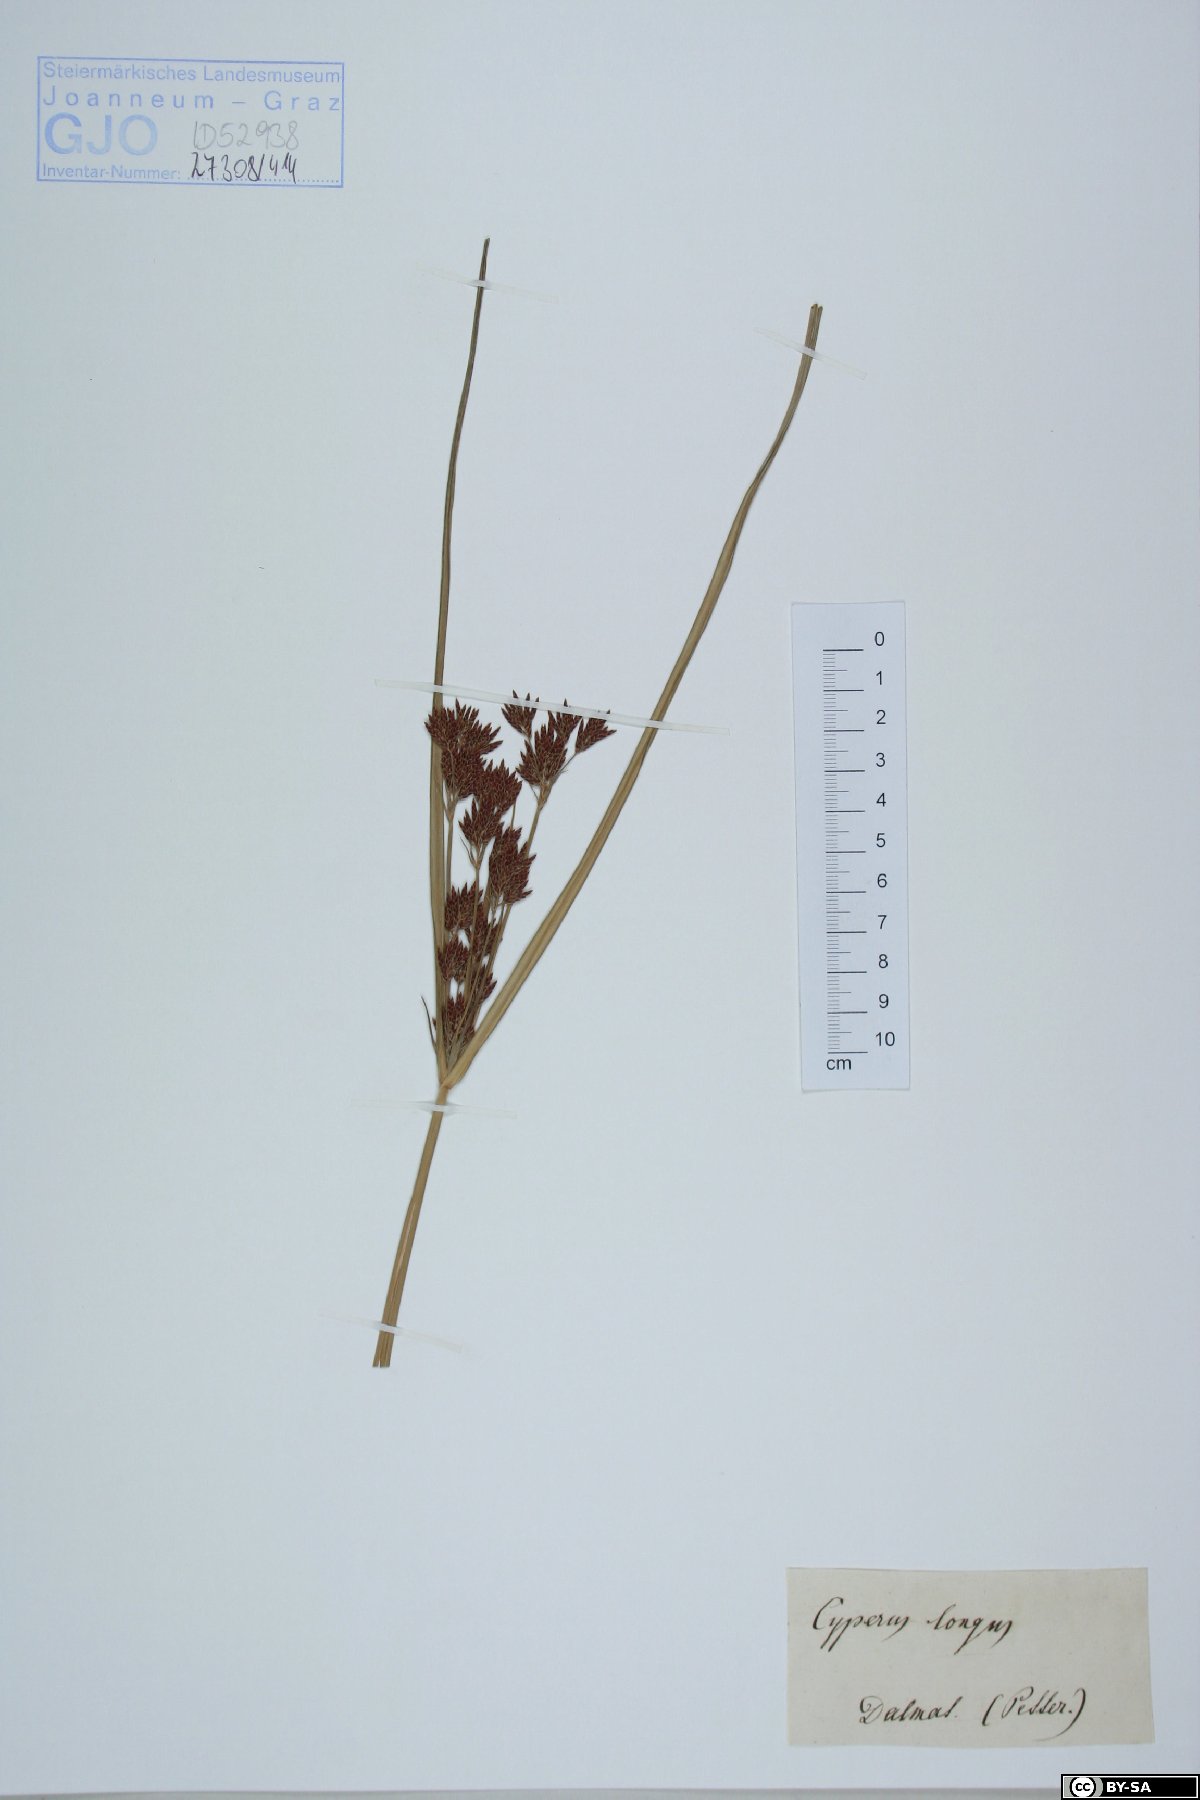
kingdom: Plantae
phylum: Tracheophyta
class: Liliopsida
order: Poales
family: Cyperaceae
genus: Cyperus
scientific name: Cyperus longus
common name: Galingale
